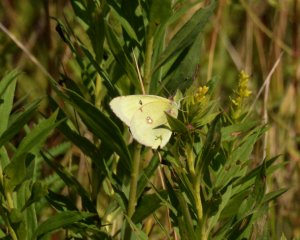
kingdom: Animalia
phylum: Arthropoda
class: Insecta
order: Lepidoptera
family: Pieridae
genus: Colias
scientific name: Colias philodice
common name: Clouded Sulphur
